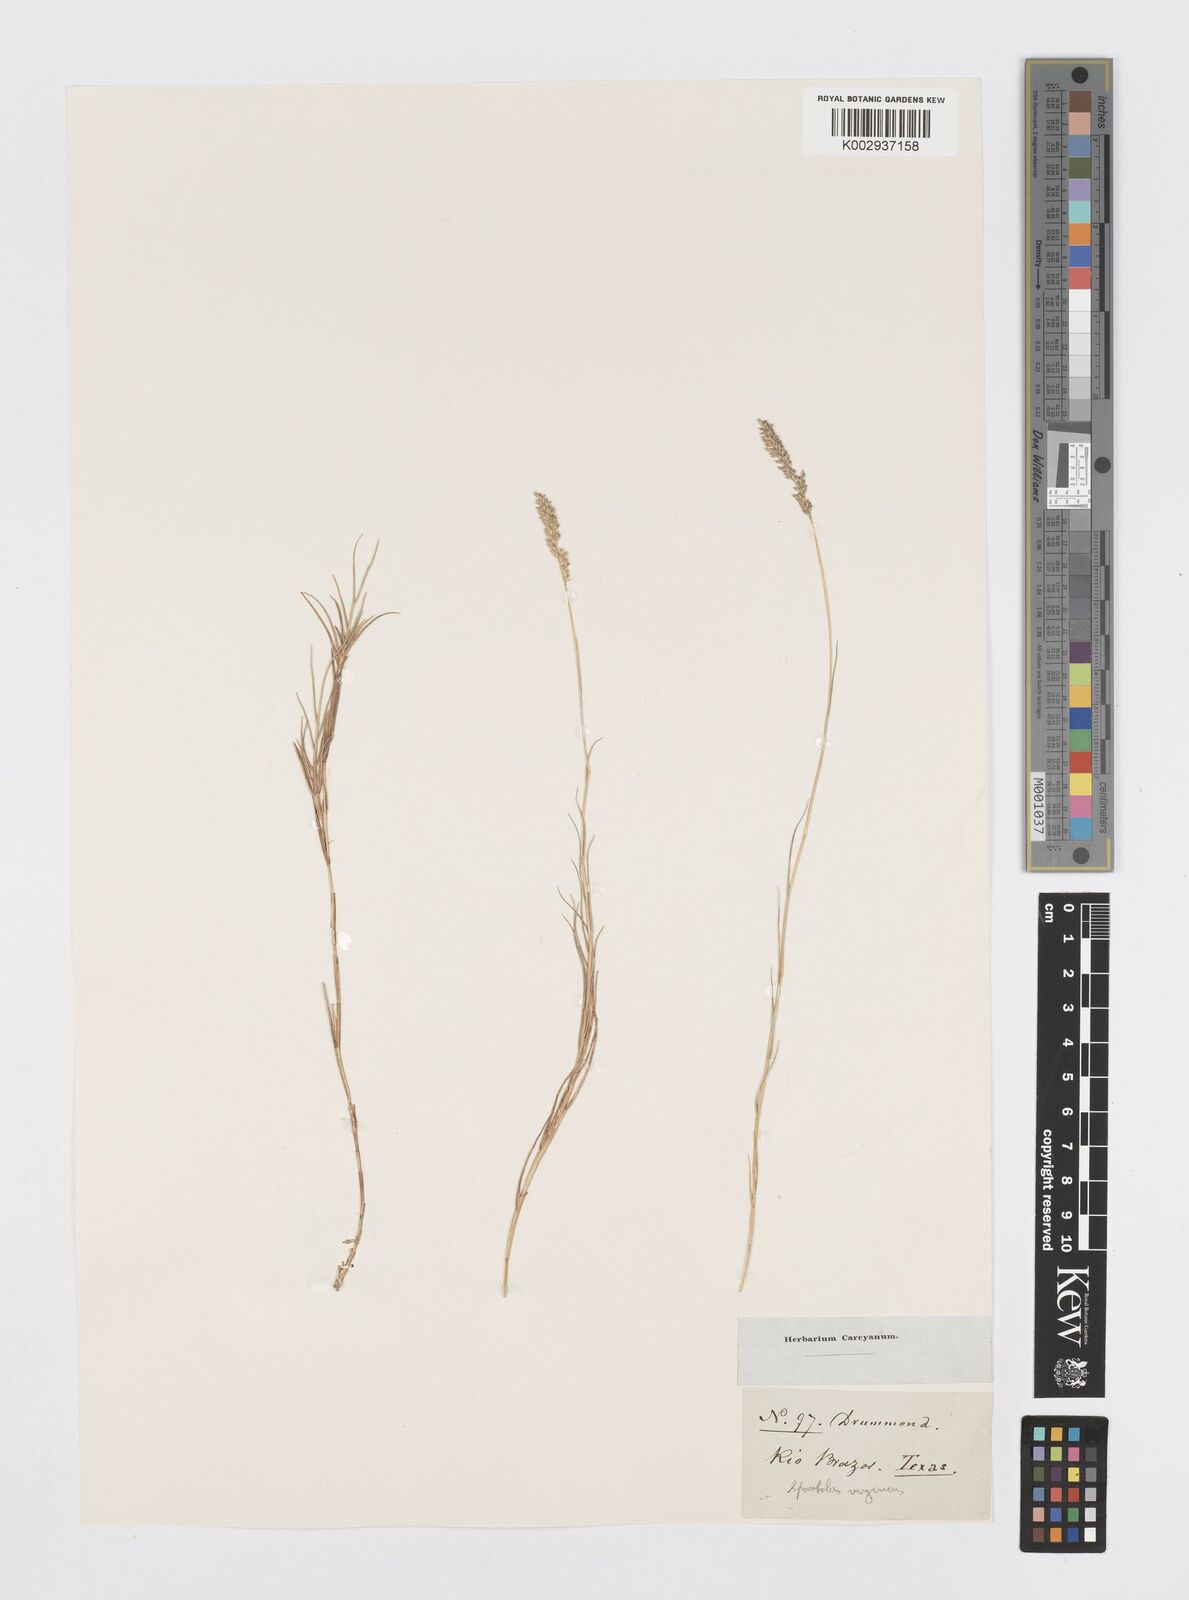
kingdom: Plantae
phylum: Tracheophyta
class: Liliopsida
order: Poales
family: Poaceae
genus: Sporobolus
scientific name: Sporobolus virginicus
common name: Beach dropseed
